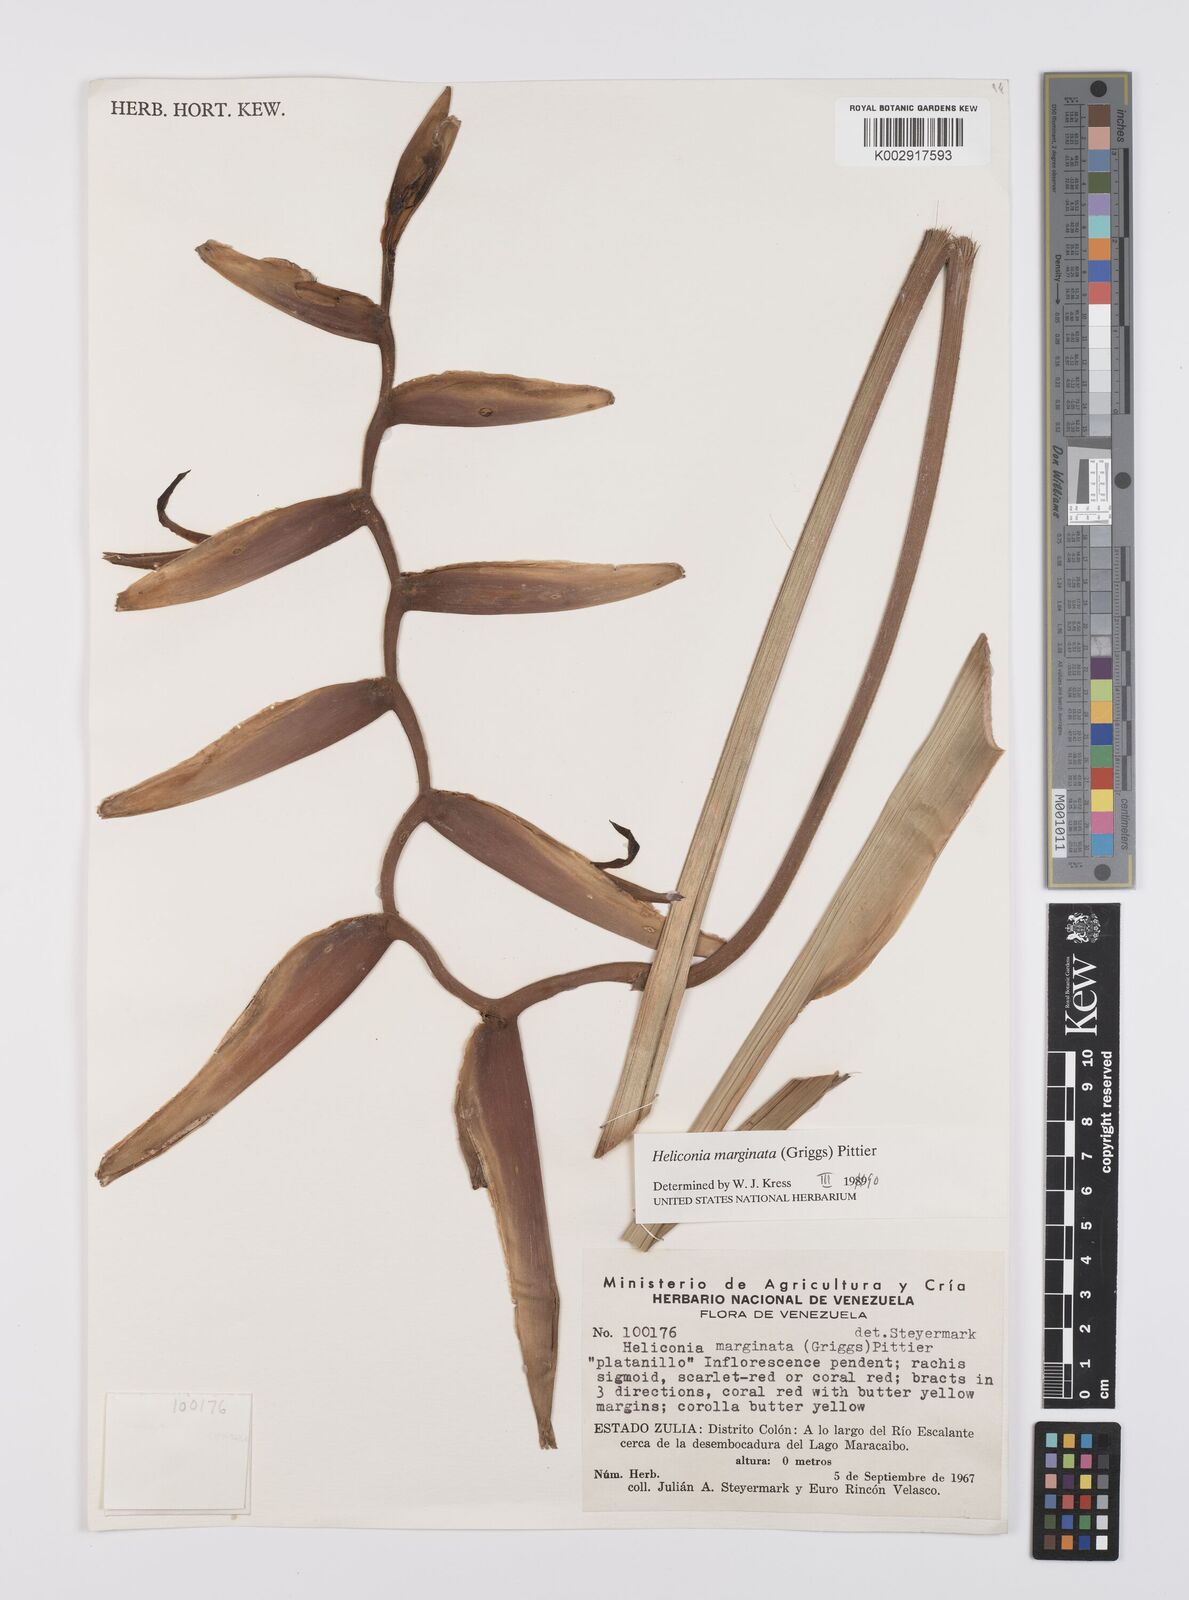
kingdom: Plantae
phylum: Tracheophyta
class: Liliopsida
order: Zingiberales
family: Heliconiaceae
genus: Heliconia
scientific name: Heliconia marginata
